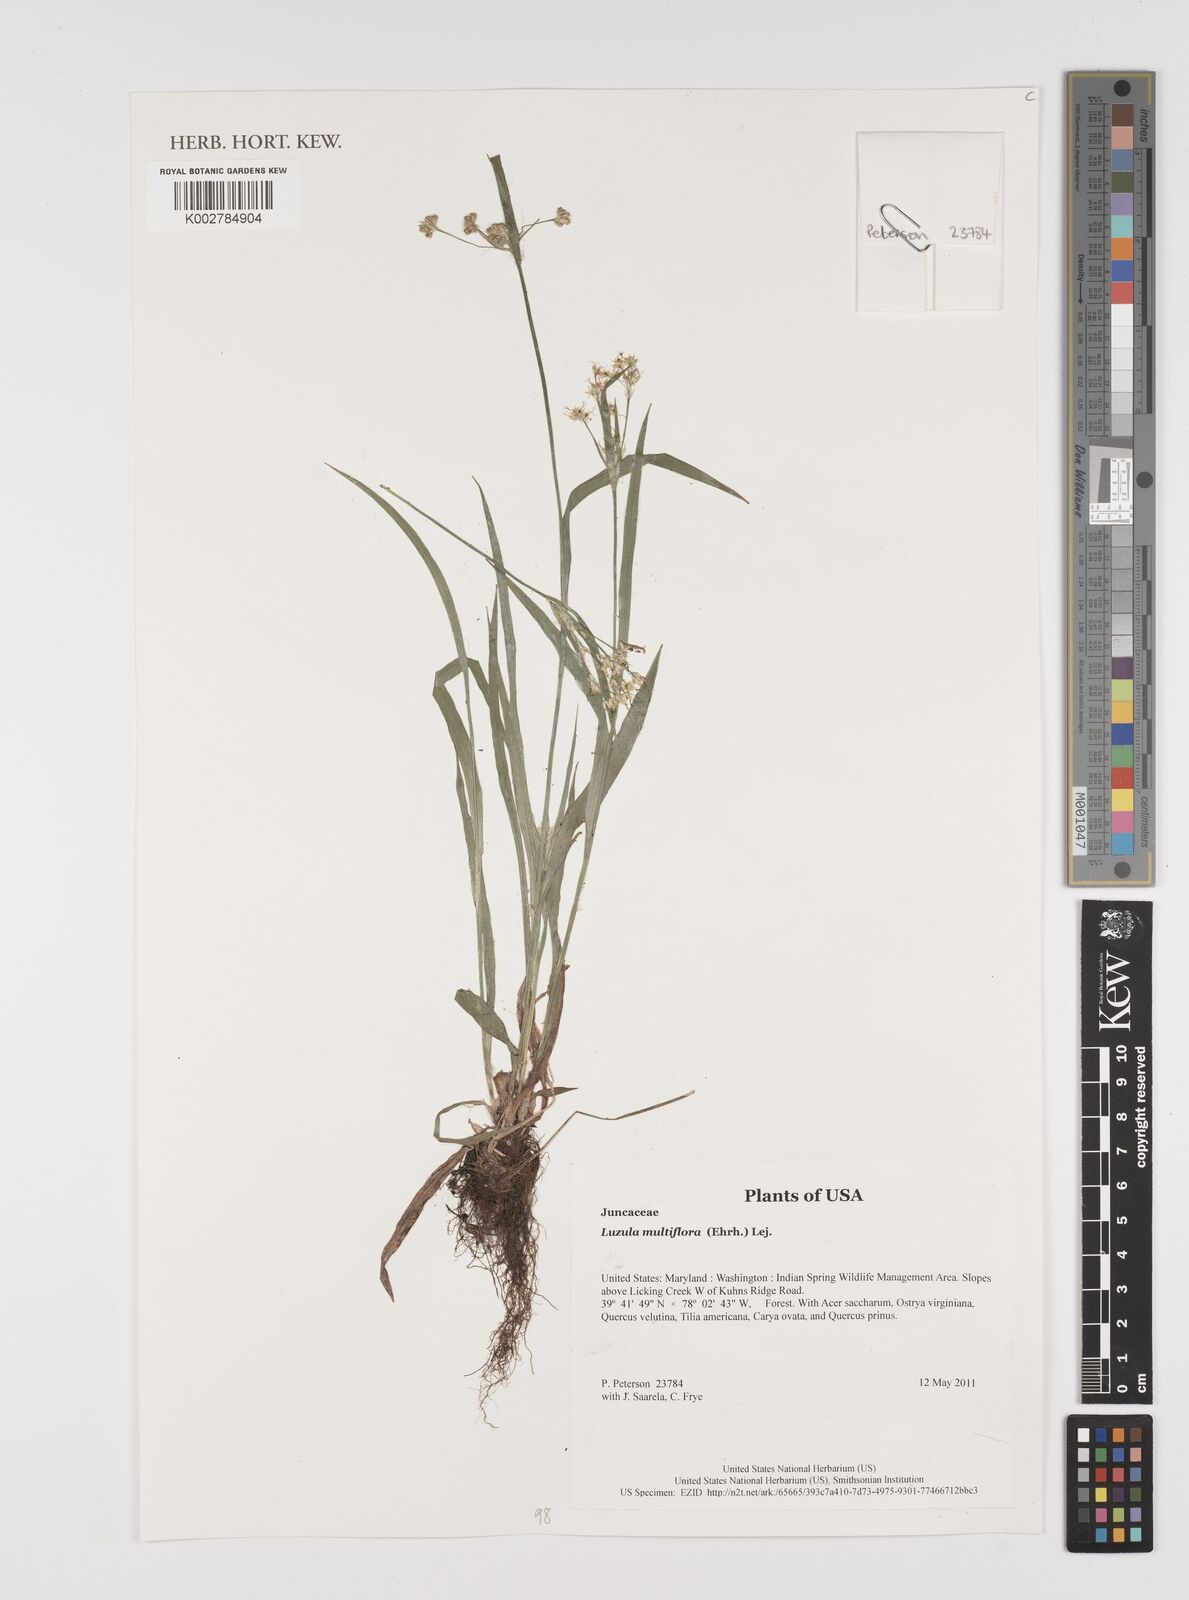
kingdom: Plantae
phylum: Tracheophyta
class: Liliopsida
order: Poales
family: Juncaceae
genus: Luzula
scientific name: Luzula multiflora
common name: Heath wood-rush
